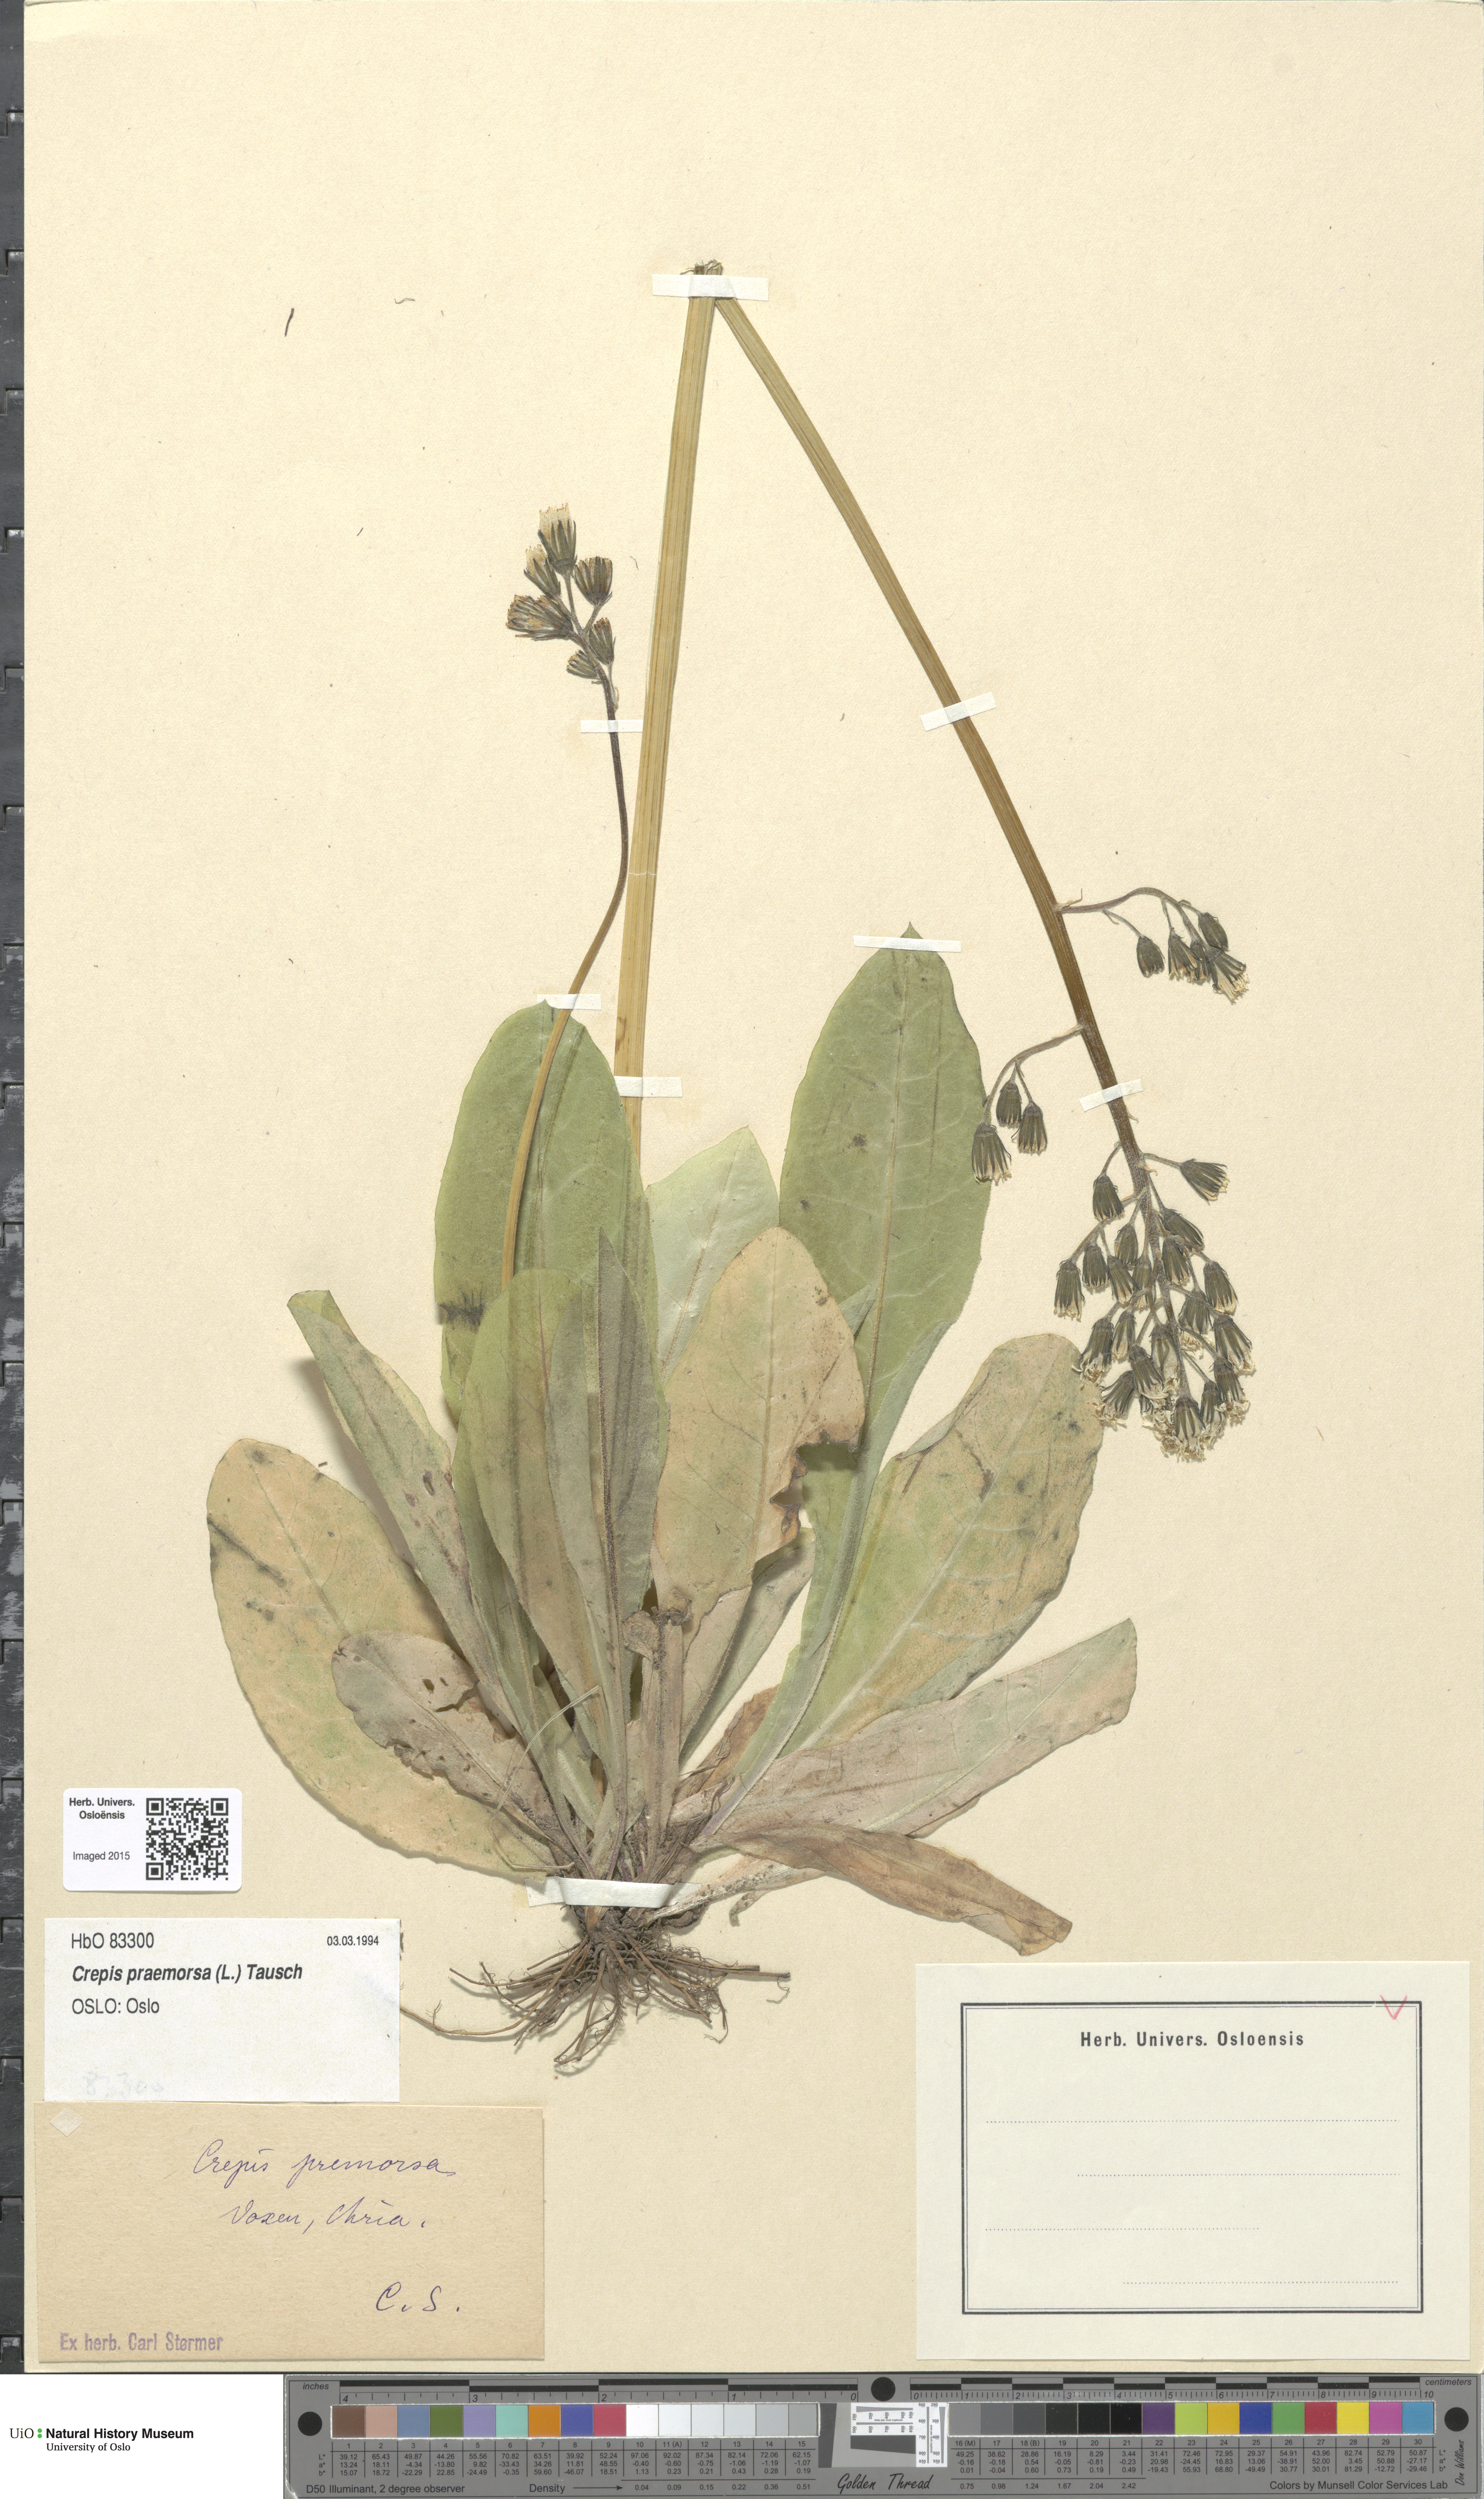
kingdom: Plantae
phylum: Tracheophyta
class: Magnoliopsida
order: Asterales
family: Asteraceae
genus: Crepis
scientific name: Crepis praemorsa
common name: Leafless hawk's-beard
